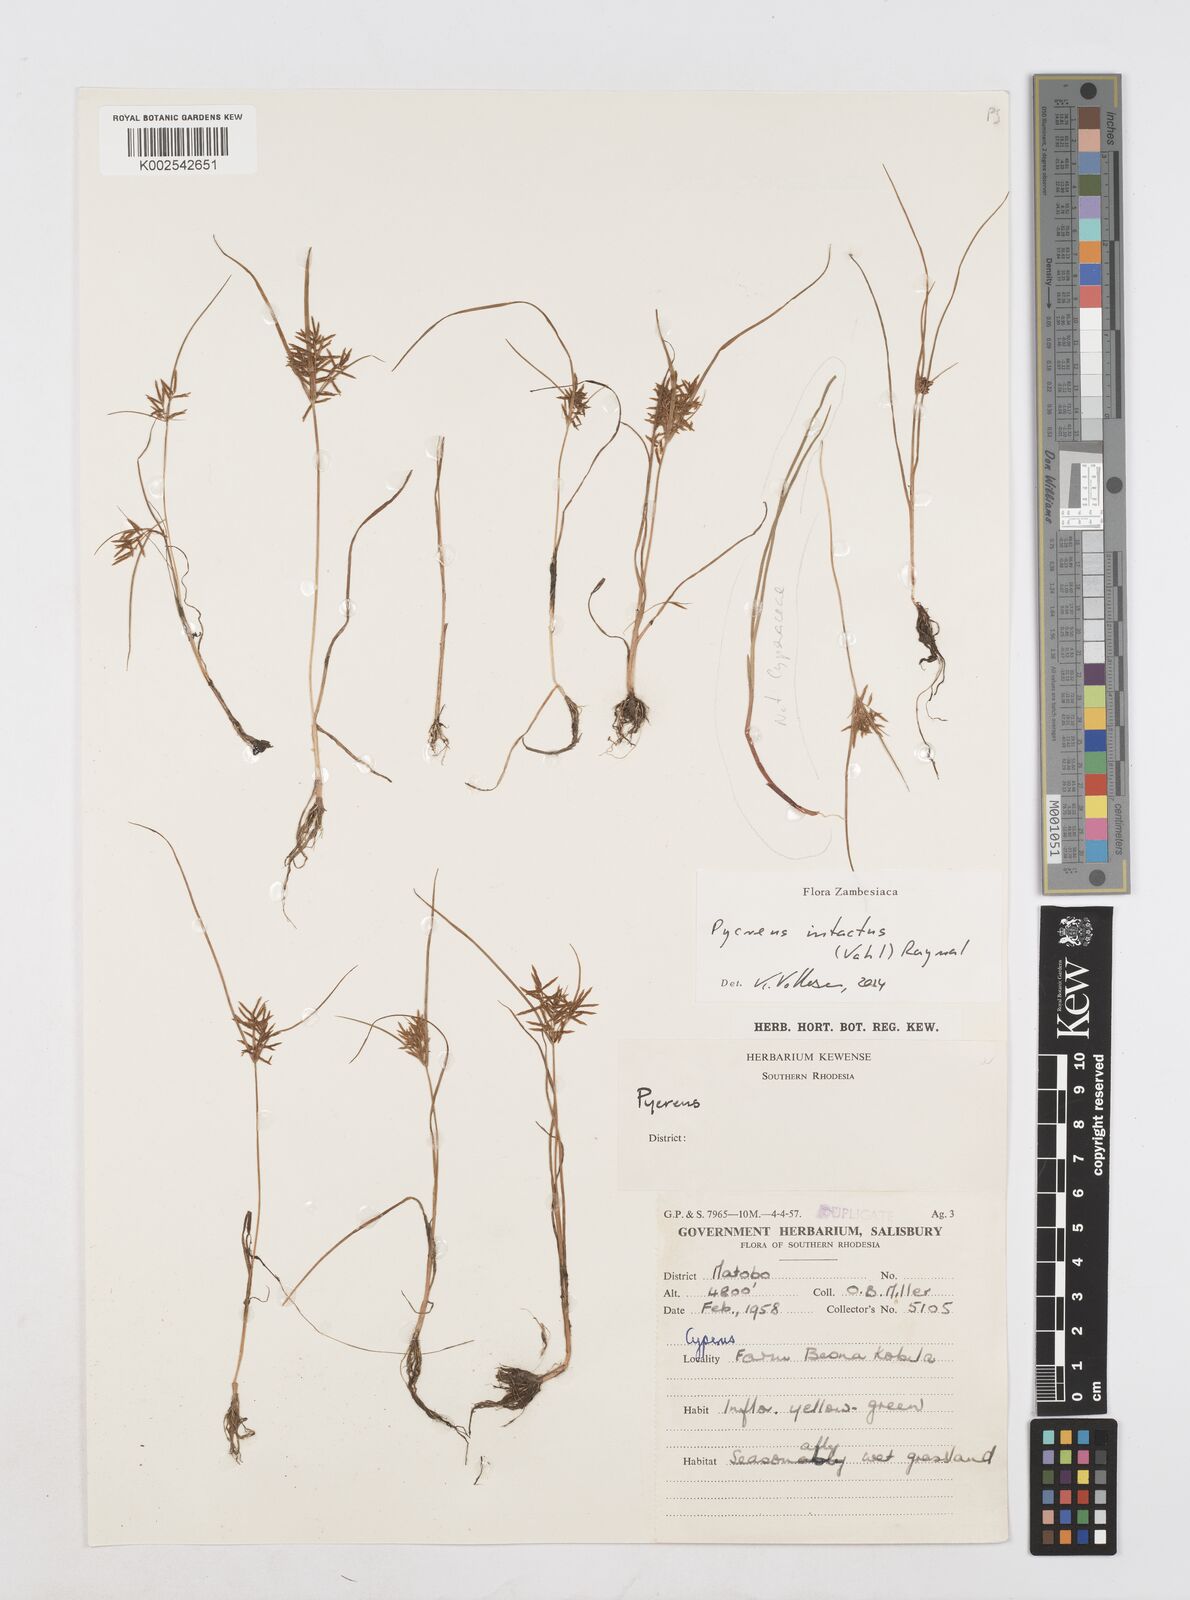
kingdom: Plantae
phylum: Tracheophyta
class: Liliopsida
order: Poales
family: Cyperaceae
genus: Cyperus
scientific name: Cyperus intactus
